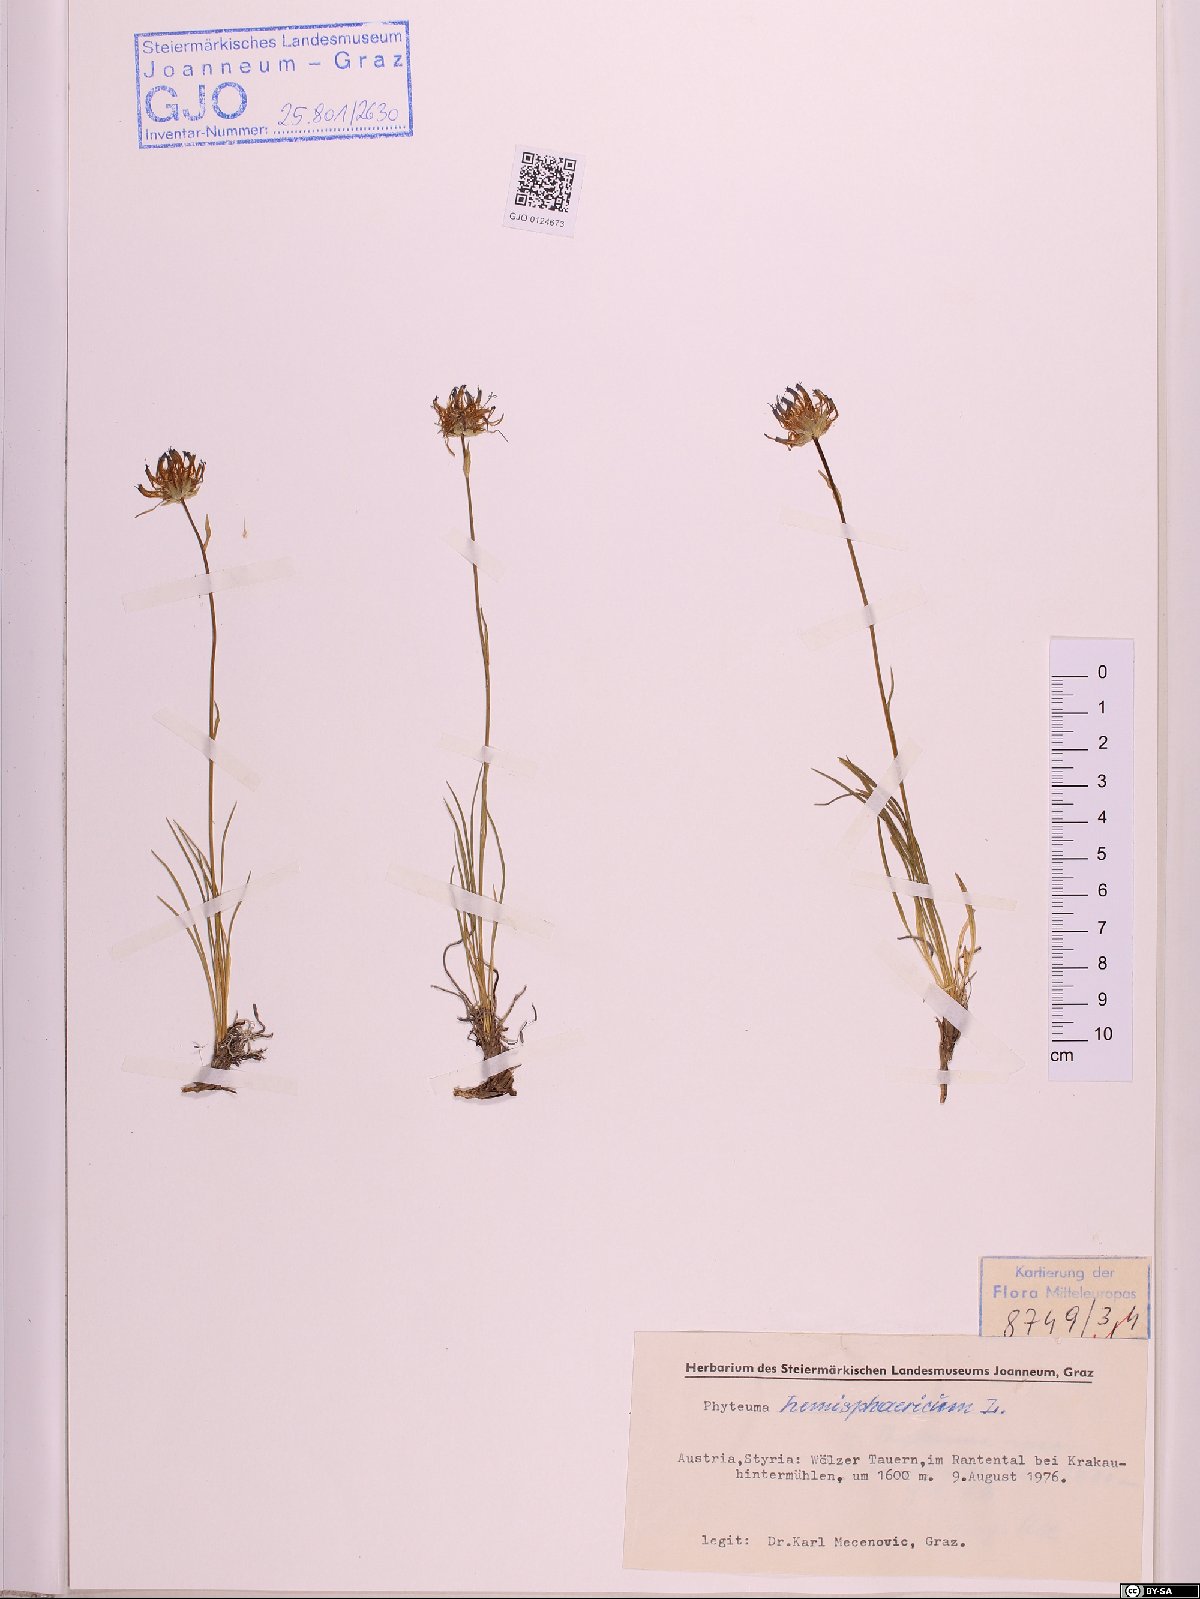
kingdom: Plantae
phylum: Tracheophyta
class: Magnoliopsida
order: Asterales
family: Campanulaceae
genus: Phyteuma
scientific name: Phyteuma hemisphaericum
